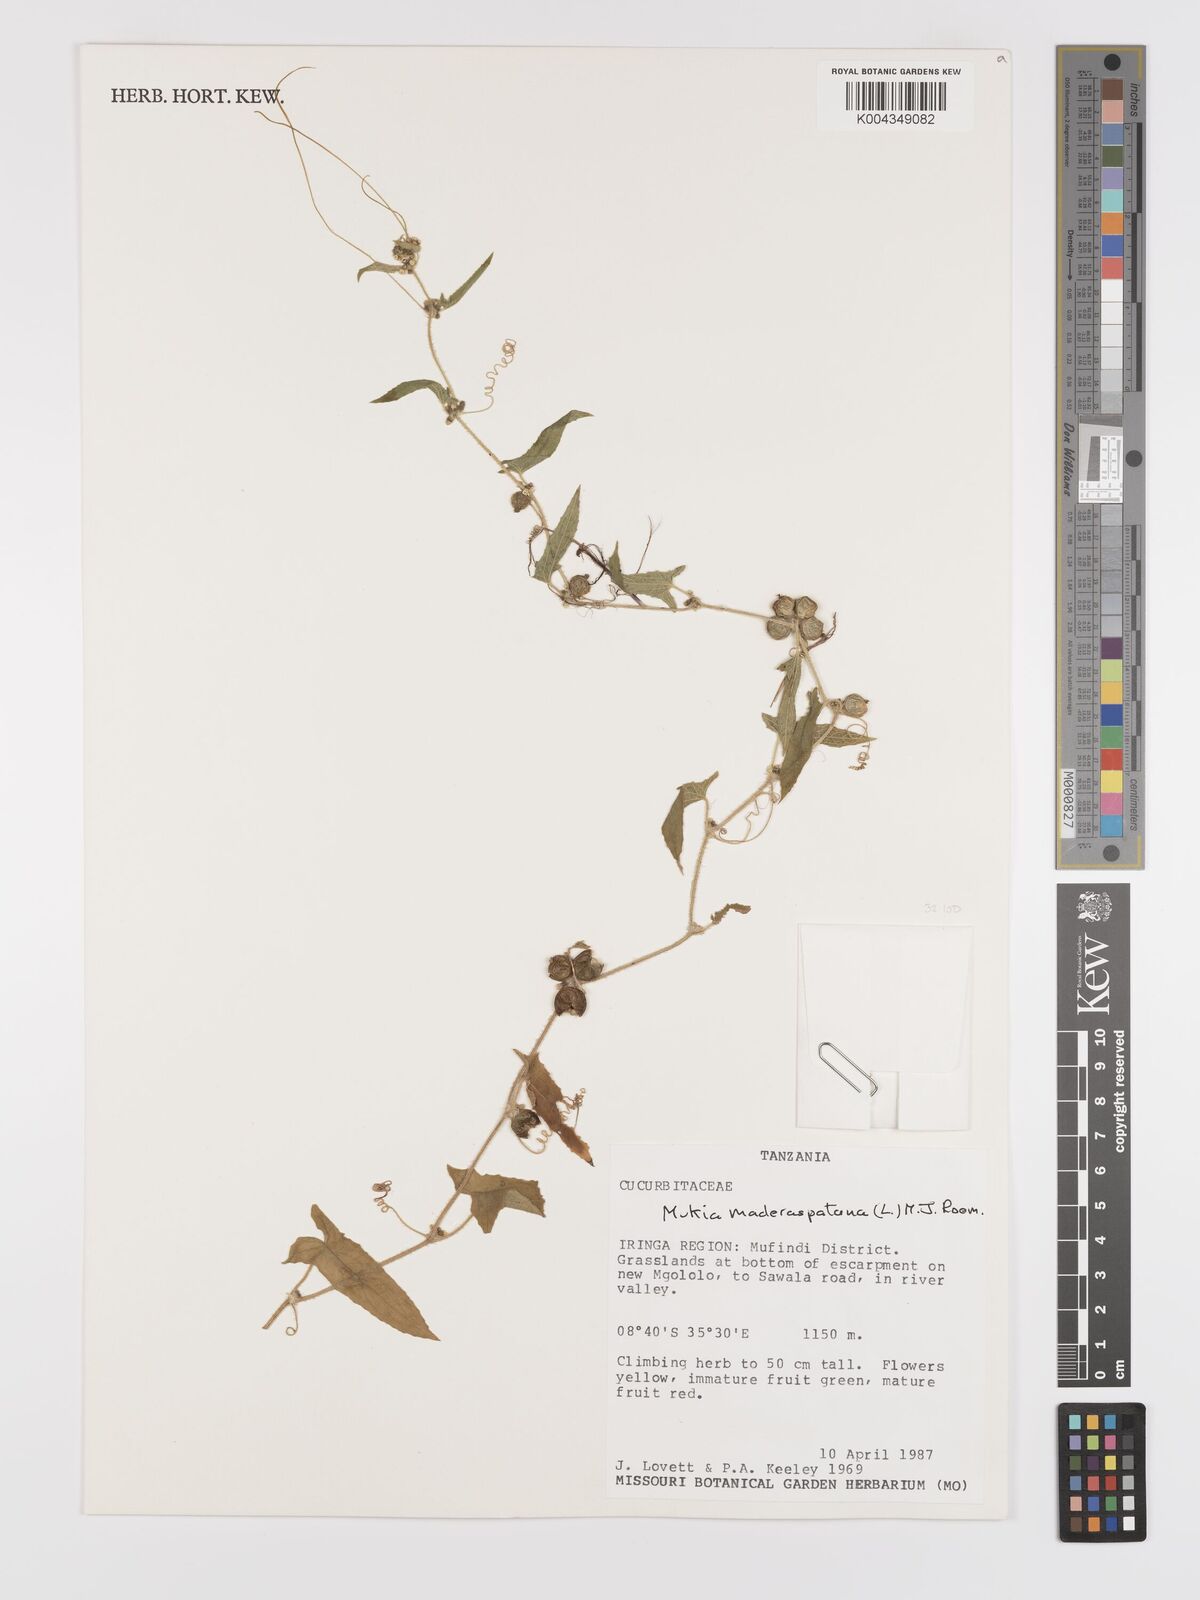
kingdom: Plantae
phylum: Tracheophyta
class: Magnoliopsida
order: Cucurbitales
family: Cucurbitaceae
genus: Cucumis
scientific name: Cucumis maderaspatanus
